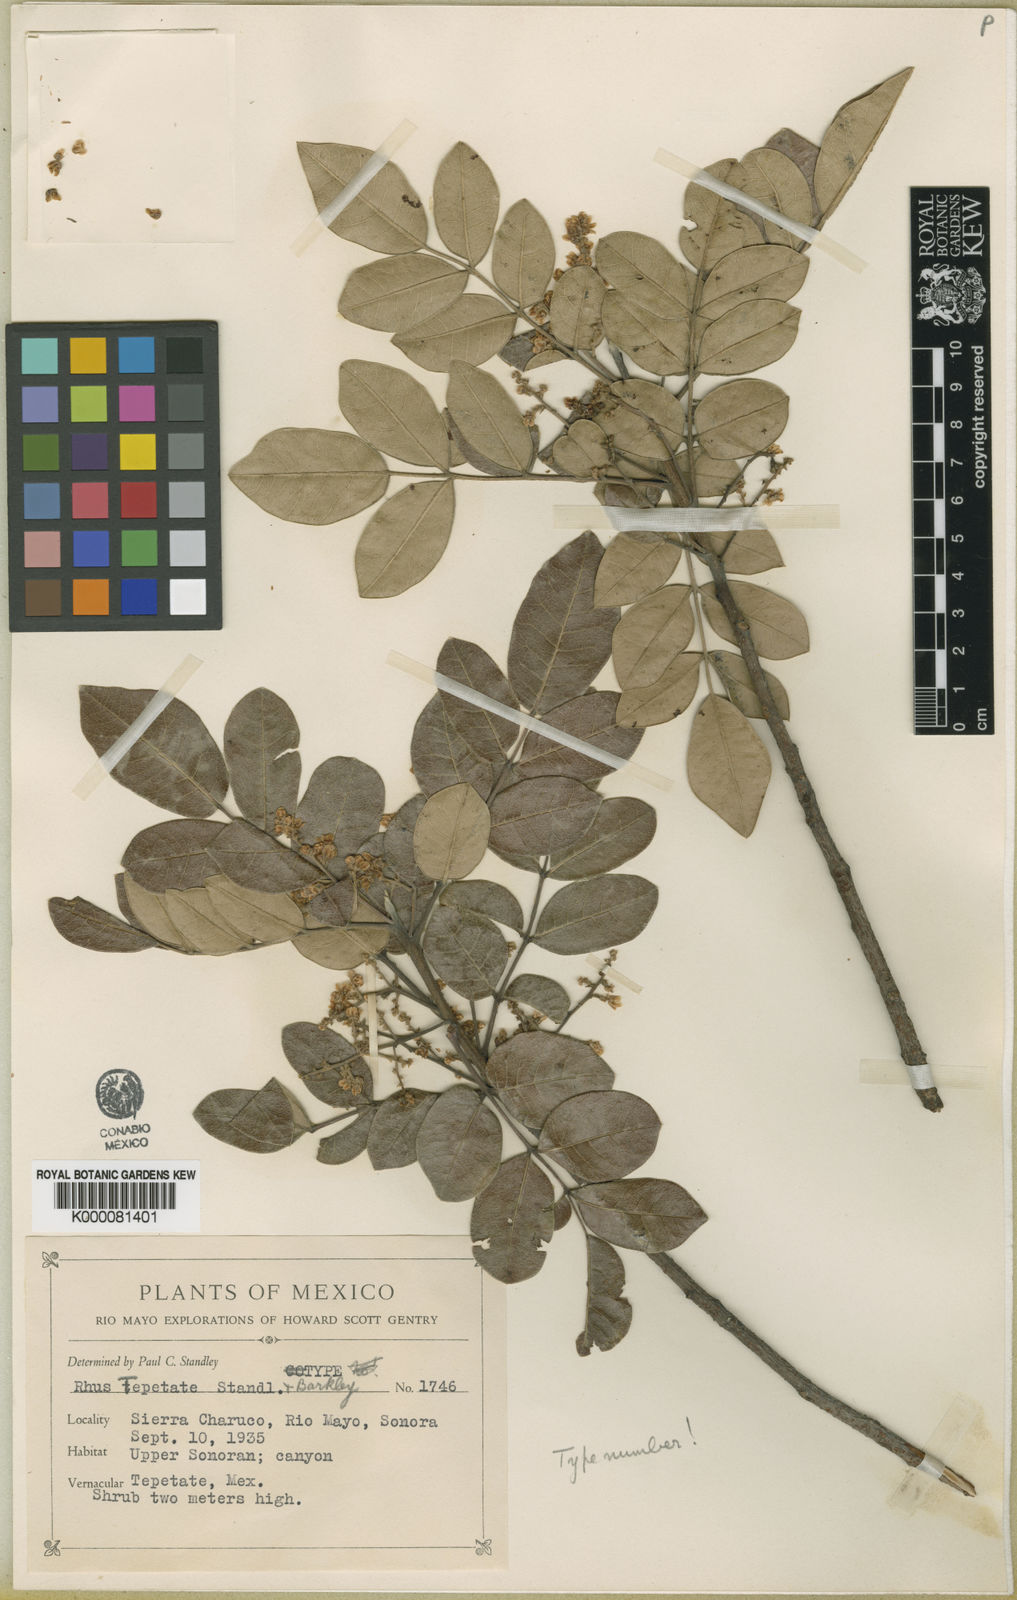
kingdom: Plantae
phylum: Tracheophyta
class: Magnoliopsida
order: Sapindales
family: Anacardiaceae
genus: Rhus
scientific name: Rhus tepetate
